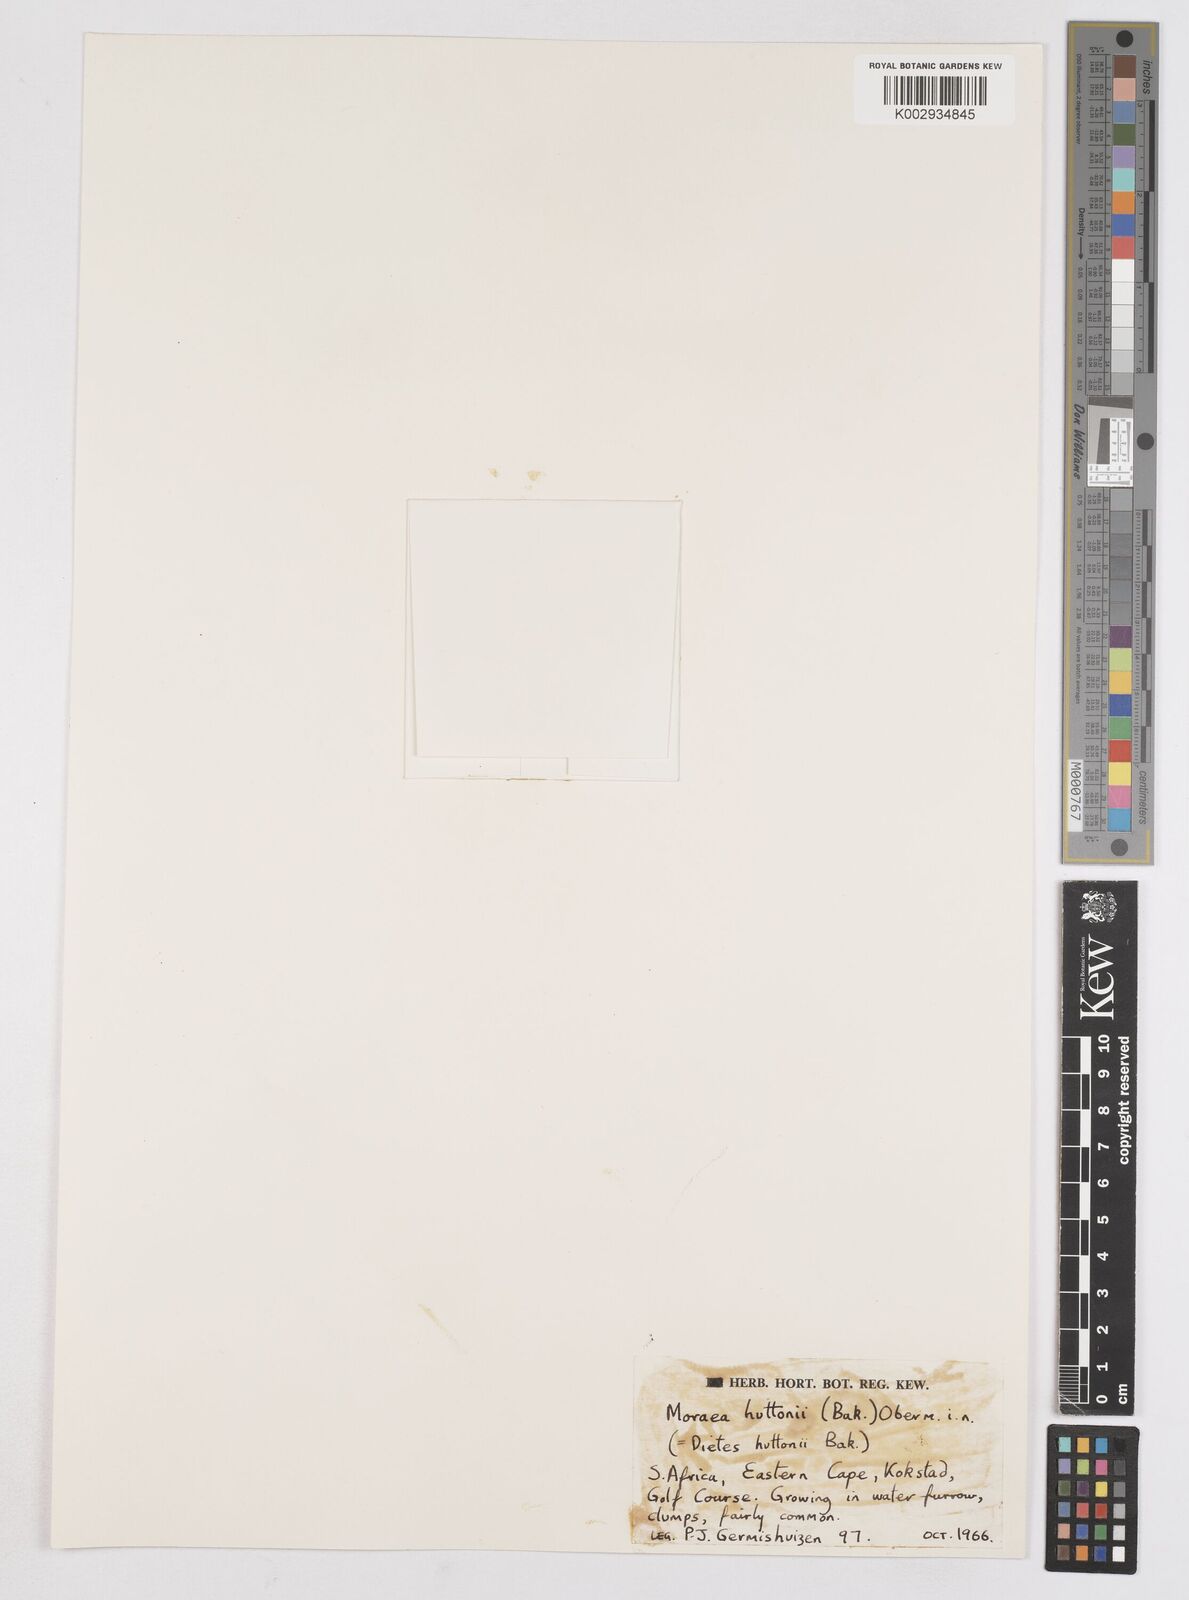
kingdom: Plantae
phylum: Tracheophyta
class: Liliopsida
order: Asparagales
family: Iridaceae
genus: Moraea
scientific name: Moraea huttonii
